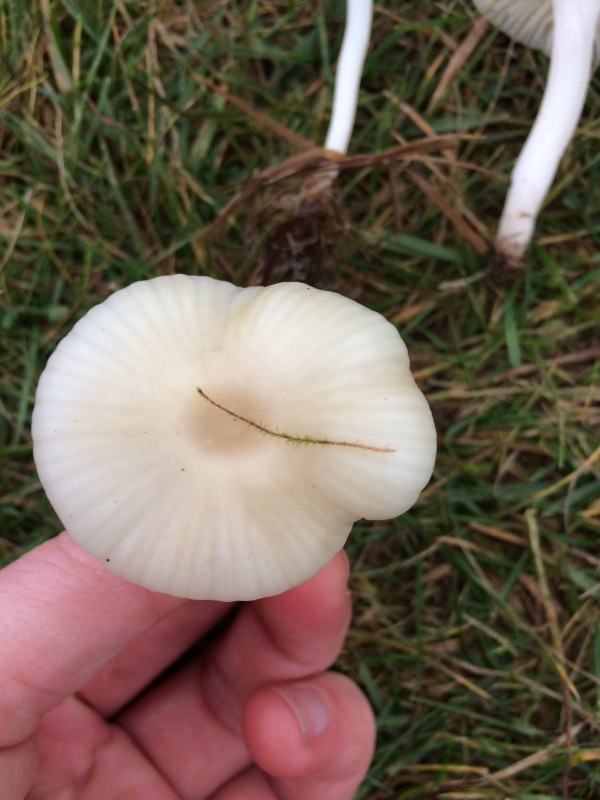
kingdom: Fungi
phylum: Basidiomycota
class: Agaricomycetes
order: Agaricales
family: Hygrophoraceae
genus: Cuphophyllus
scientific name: Cuphophyllus virgineus
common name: snehvid vokshat
